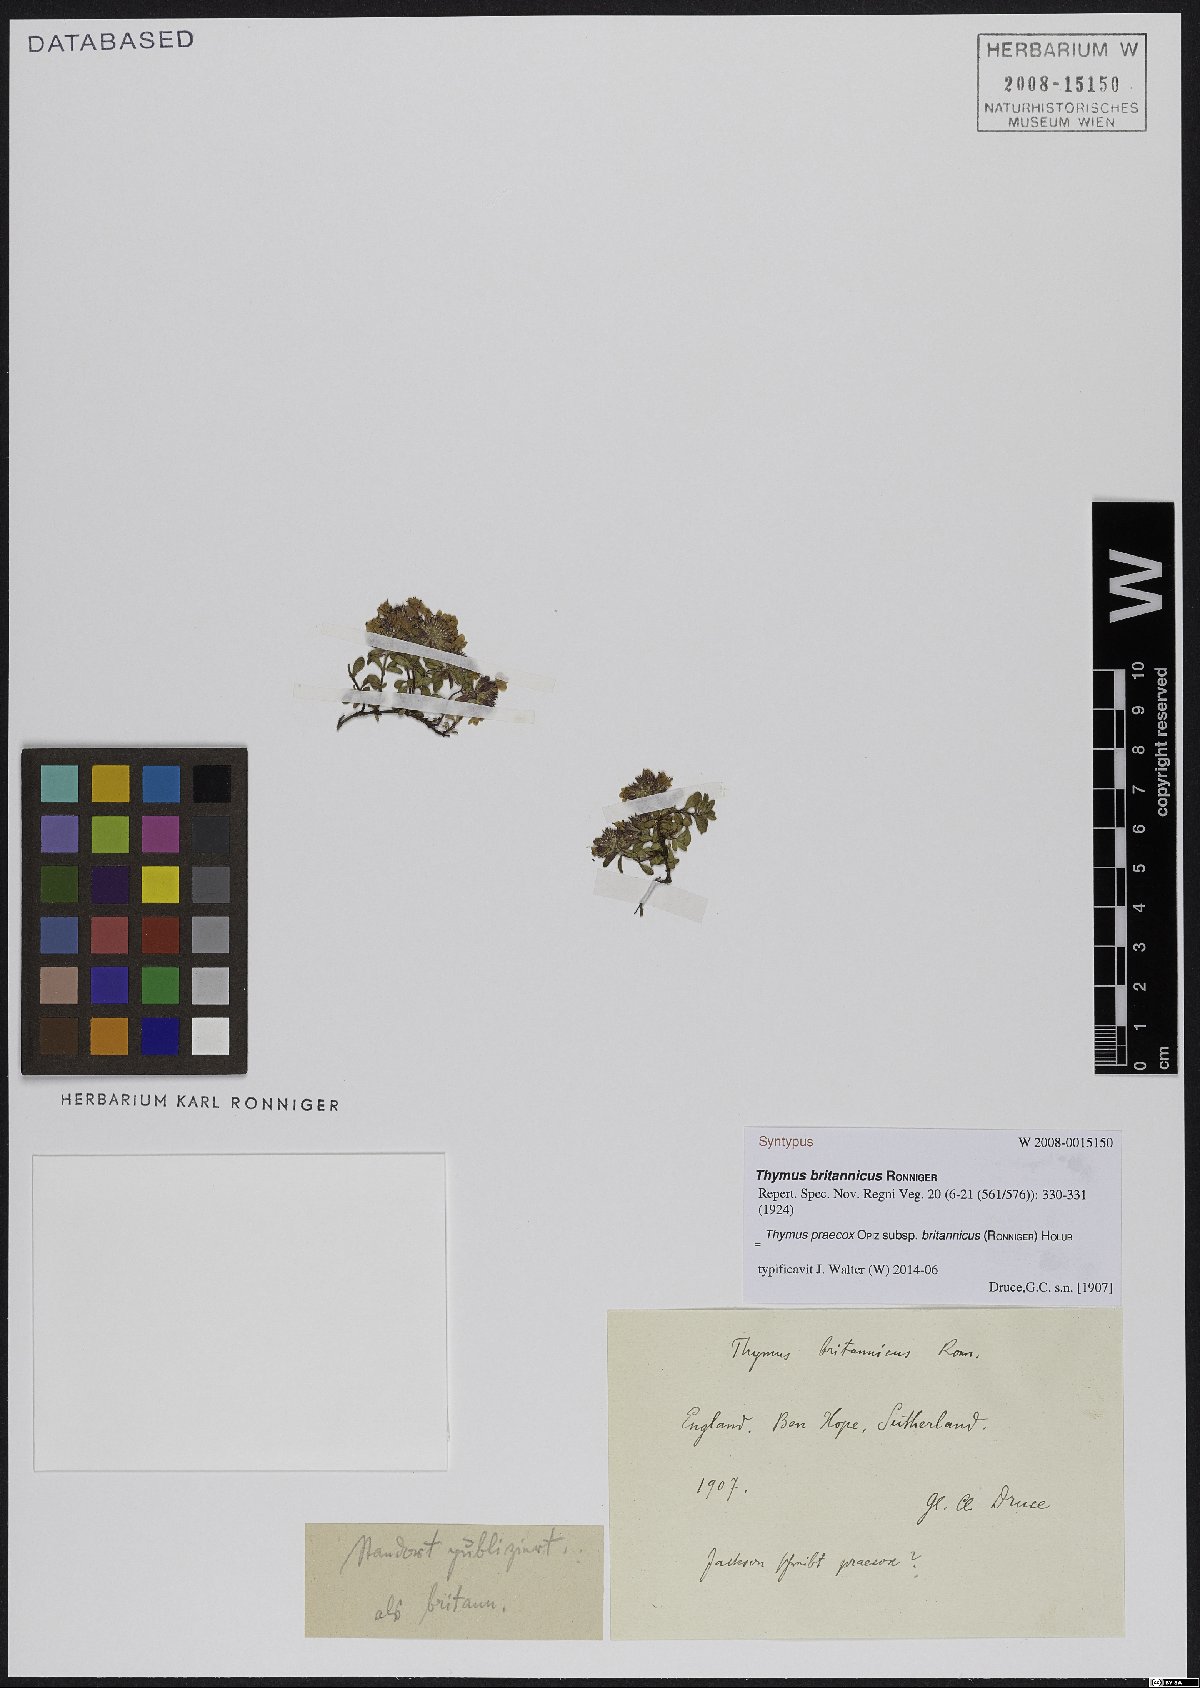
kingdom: Plantae
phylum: Tracheophyta
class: Magnoliopsida
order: Lamiales
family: Lamiaceae
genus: Thymus
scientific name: Thymus praecox
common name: Wild thyme
